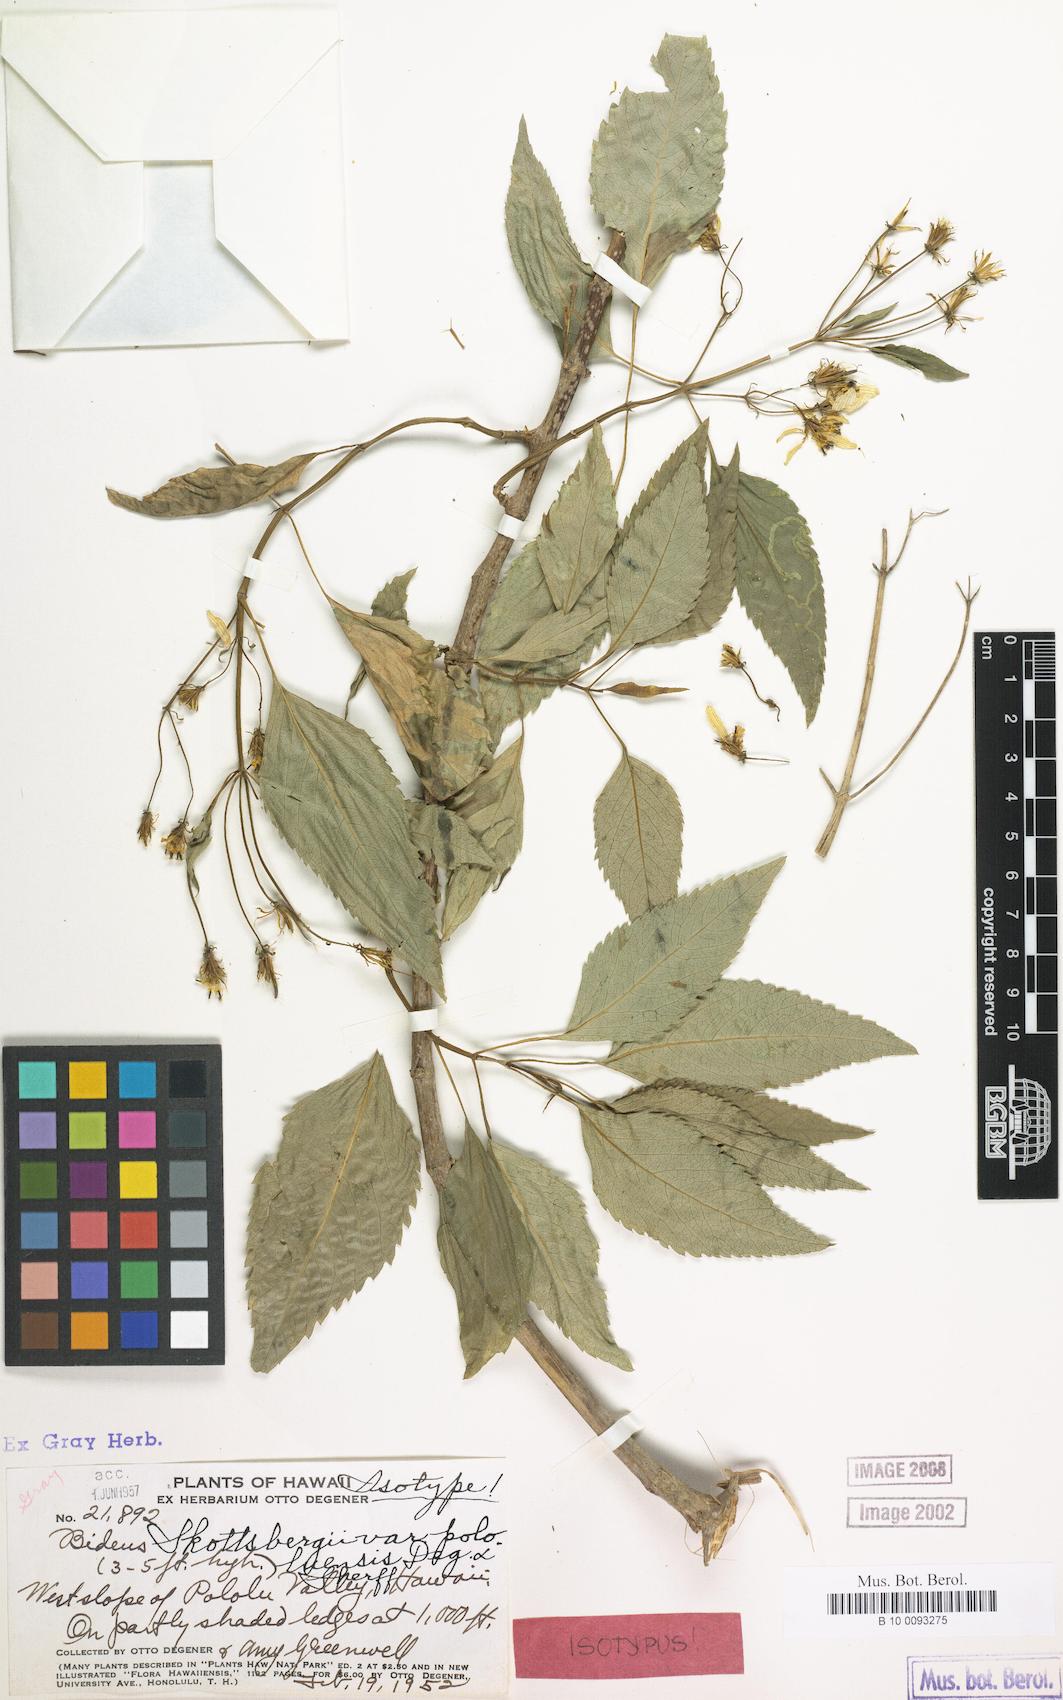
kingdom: Plantae
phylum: Tracheophyta
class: Magnoliopsida
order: Asterales
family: Asteraceae
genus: Bidens
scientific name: Bidens hawaiensis
